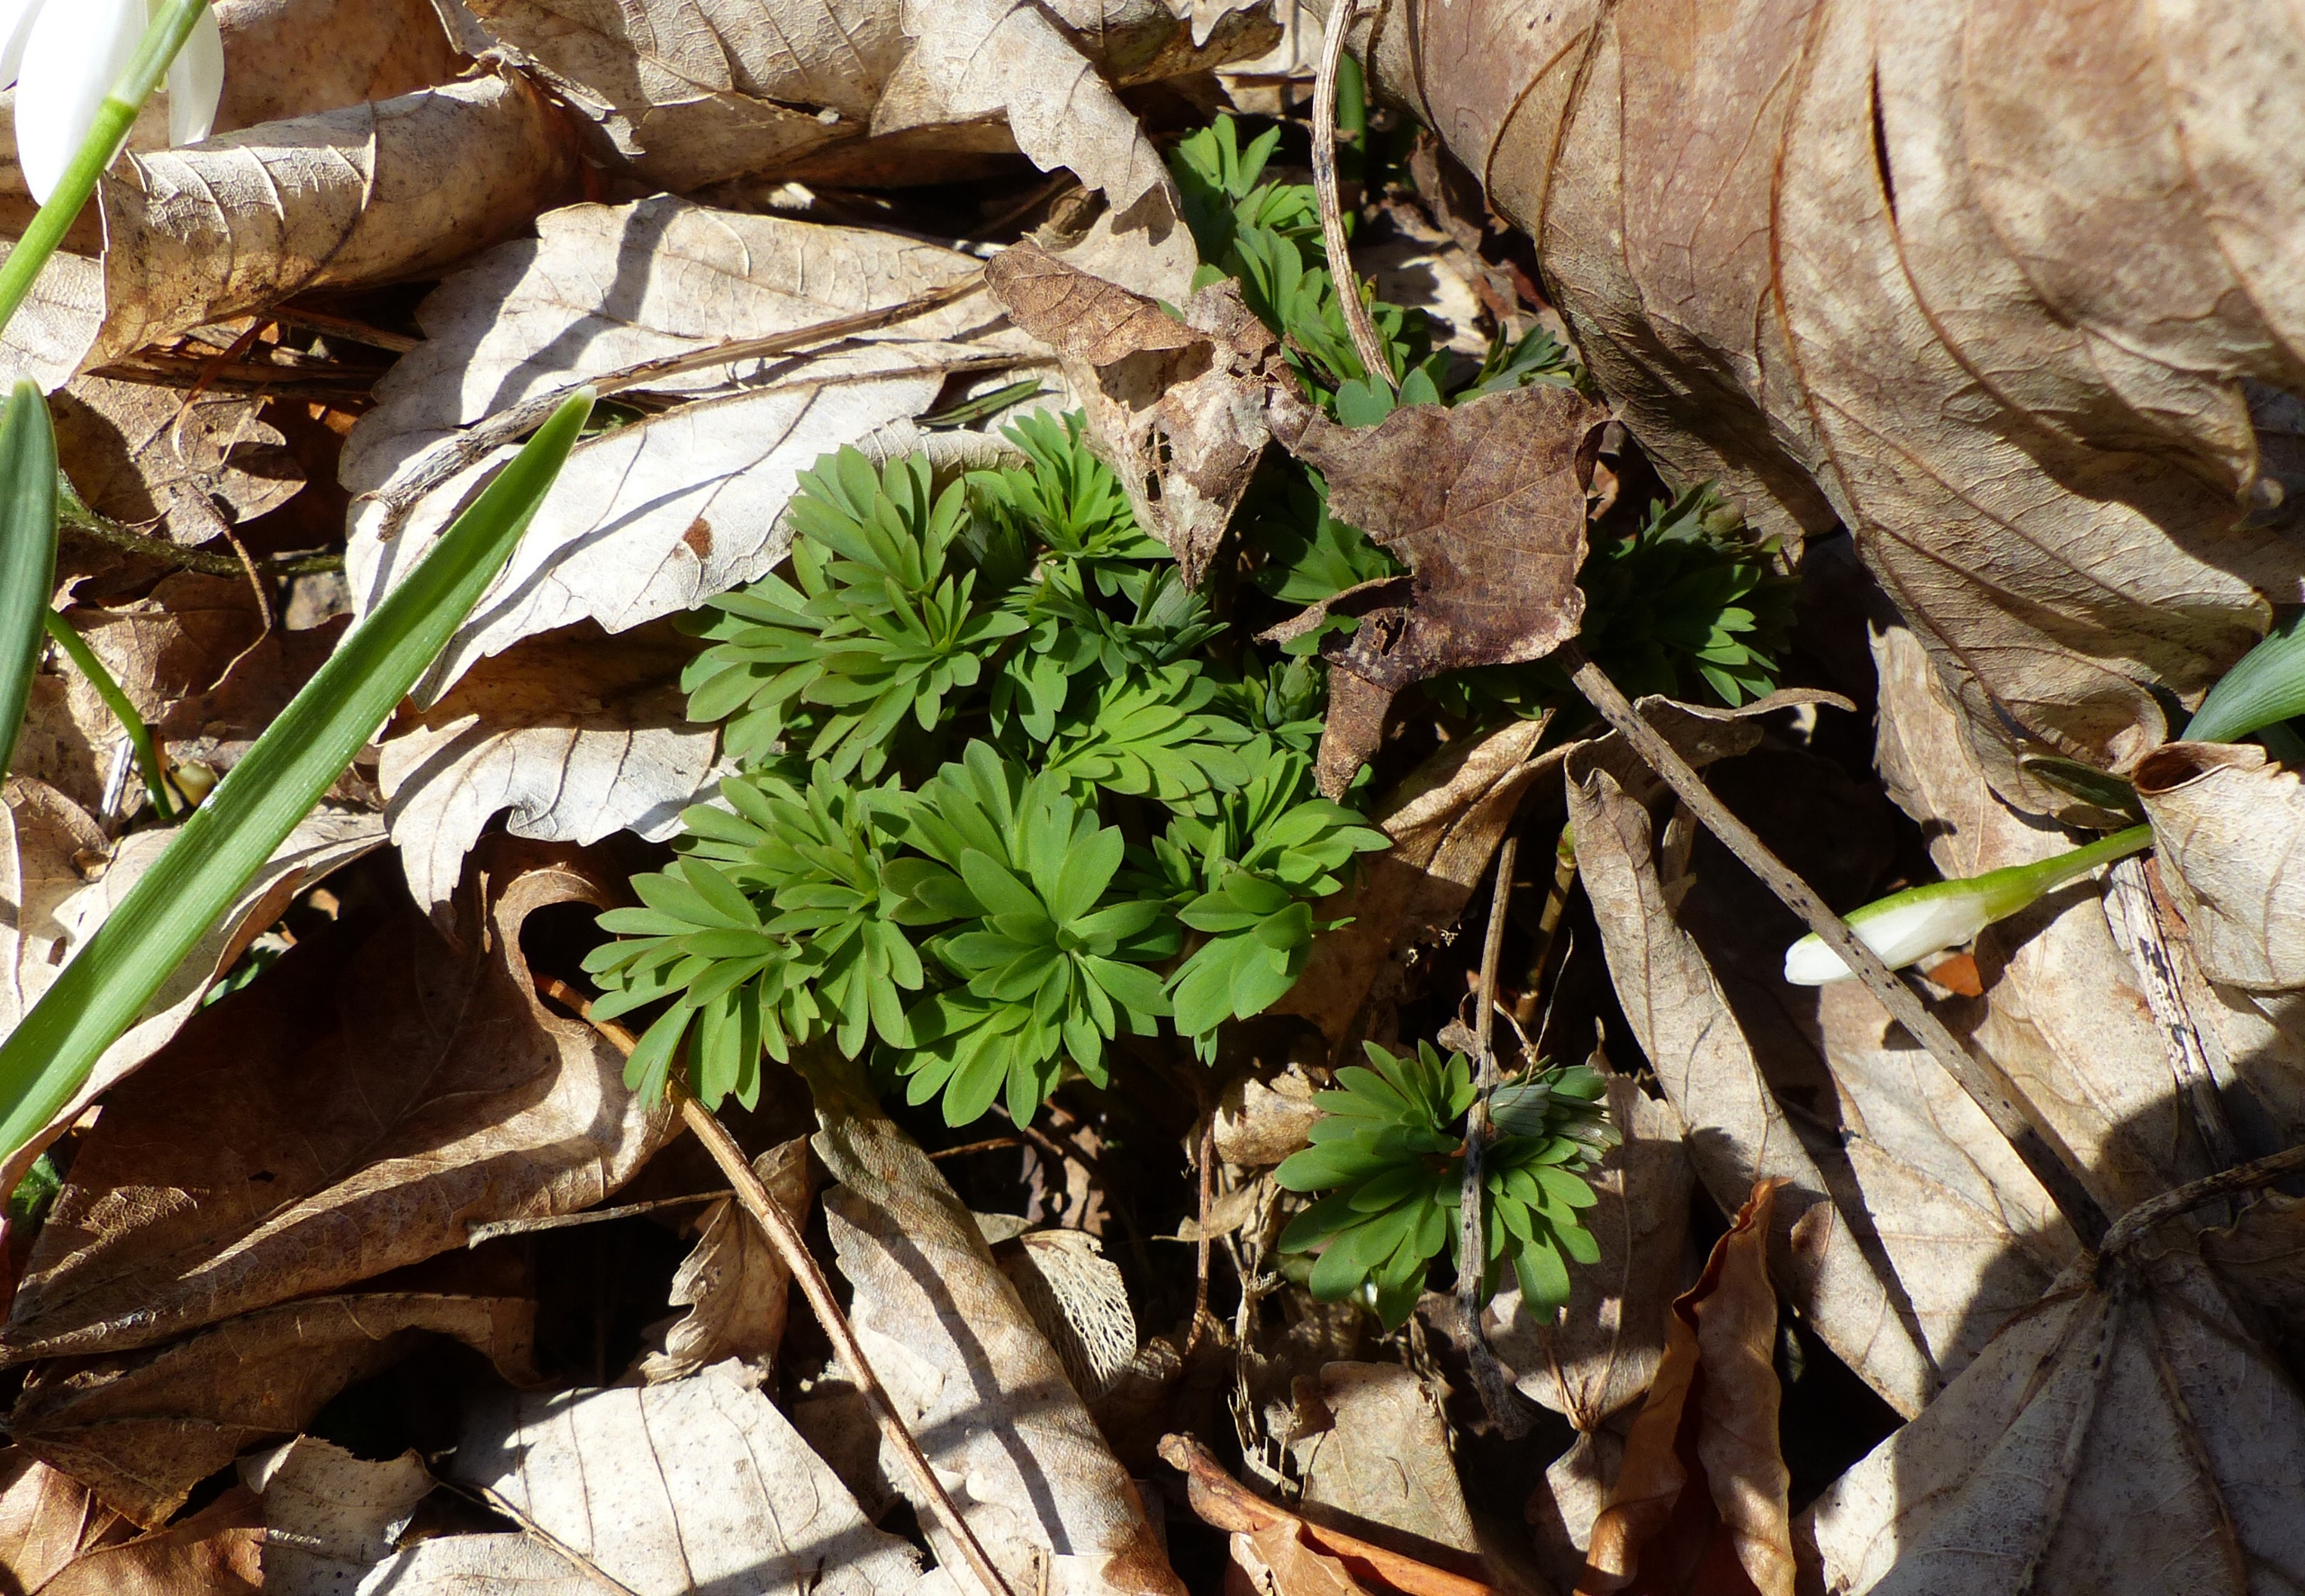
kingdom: Plantae
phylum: Tracheophyta
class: Magnoliopsida
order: Ranunculales
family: Papaveraceae
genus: Corydalis
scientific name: Corydalis solida
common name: Langstilket lærkespore
